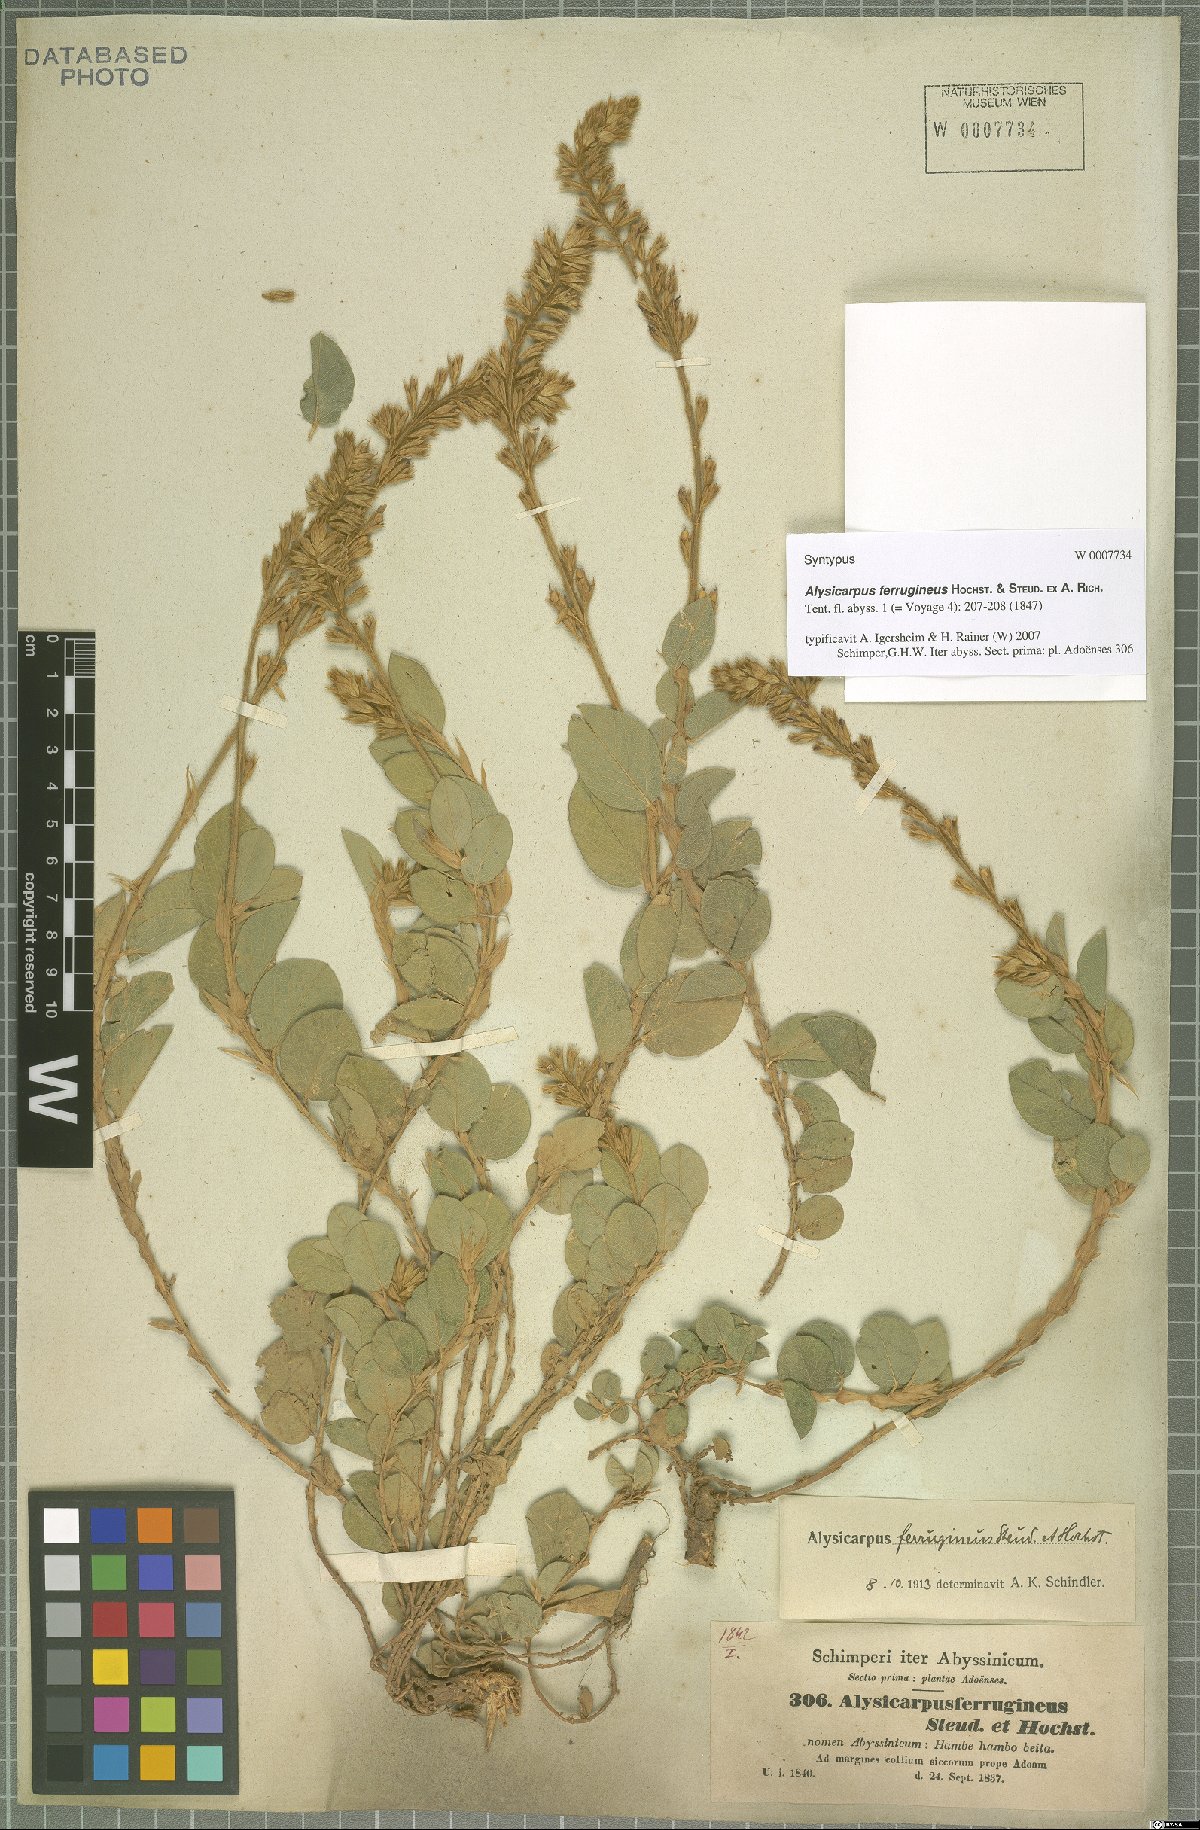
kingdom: Plantae
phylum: Tracheophyta
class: Magnoliopsida
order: Fabales
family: Fabaceae
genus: Alysicarpus
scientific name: Alysicarpus ferrugineus
